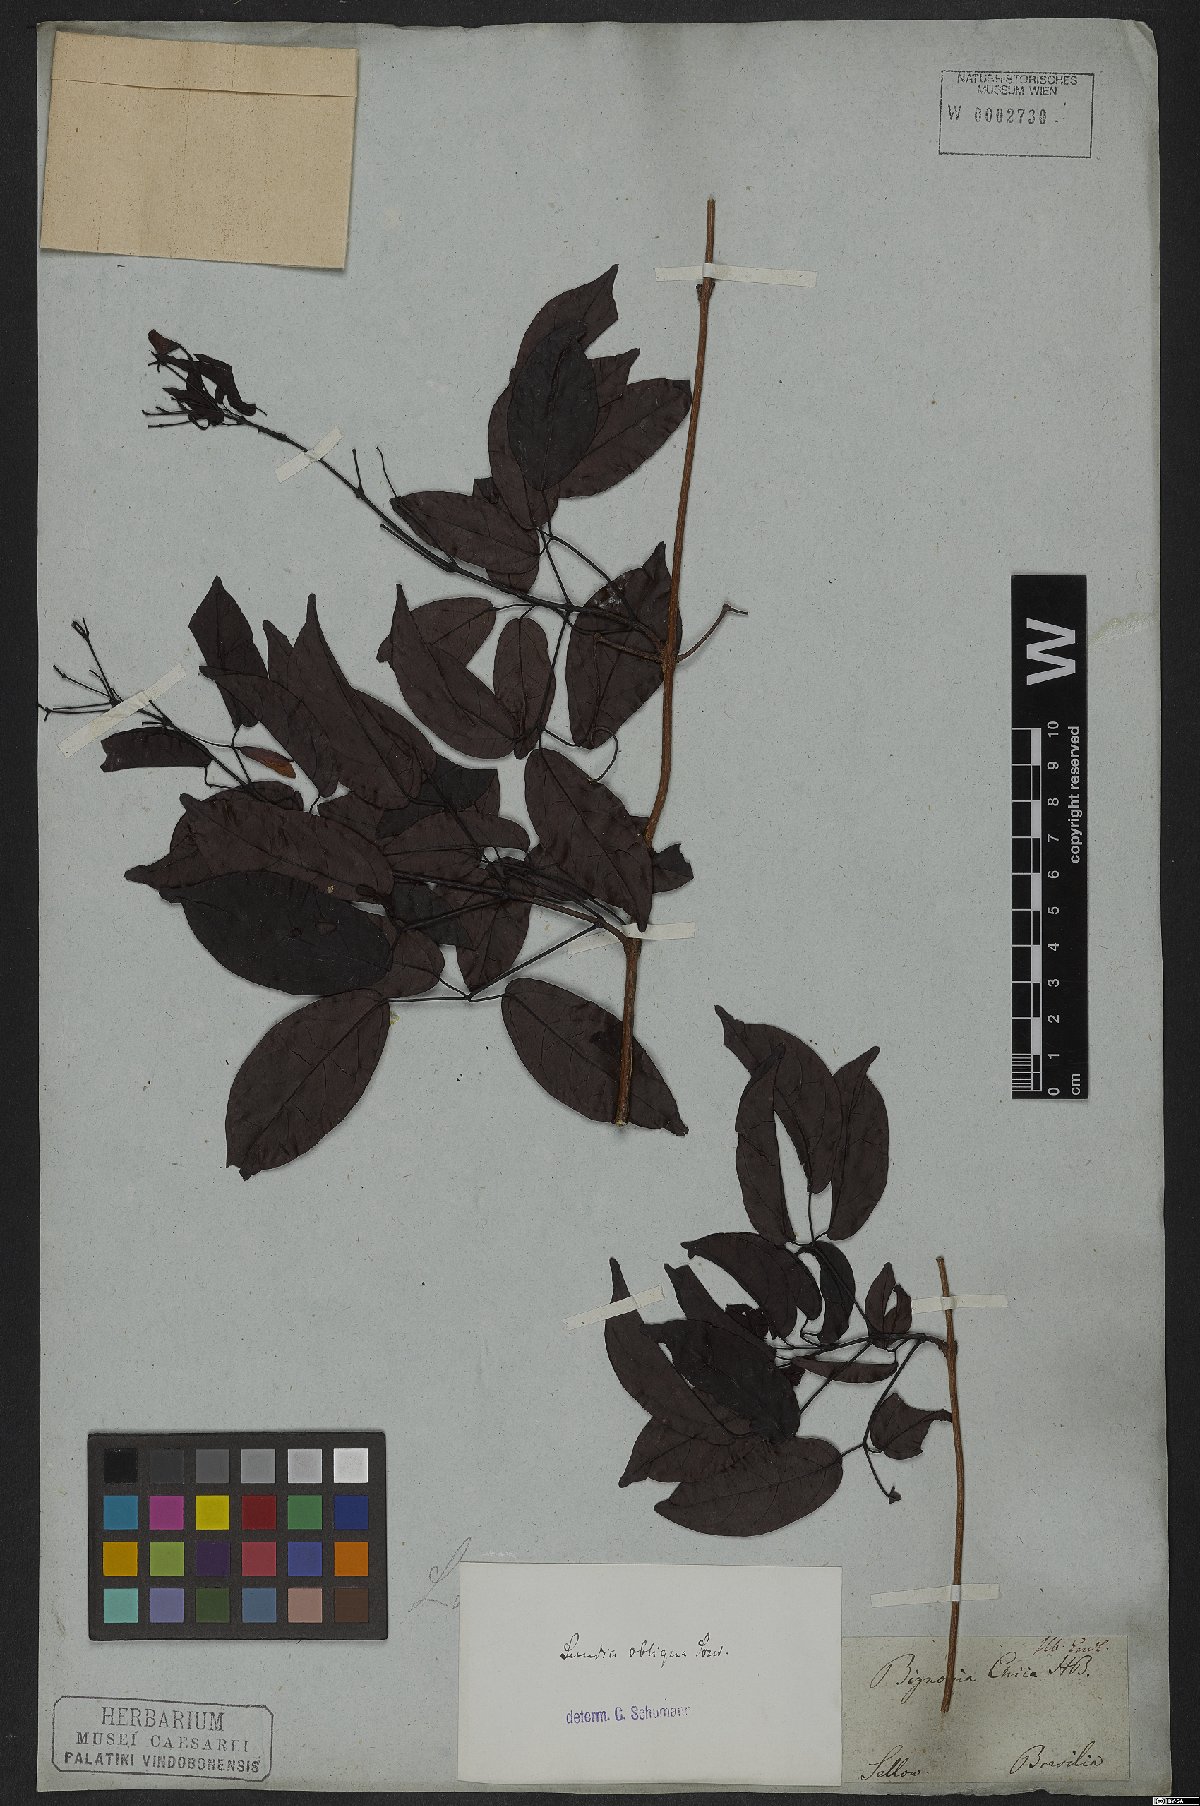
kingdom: Plantae
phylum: Tracheophyta
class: Magnoliopsida
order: Lamiales
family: Bignoniaceae
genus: Lundia
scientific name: Lundia obliqua
